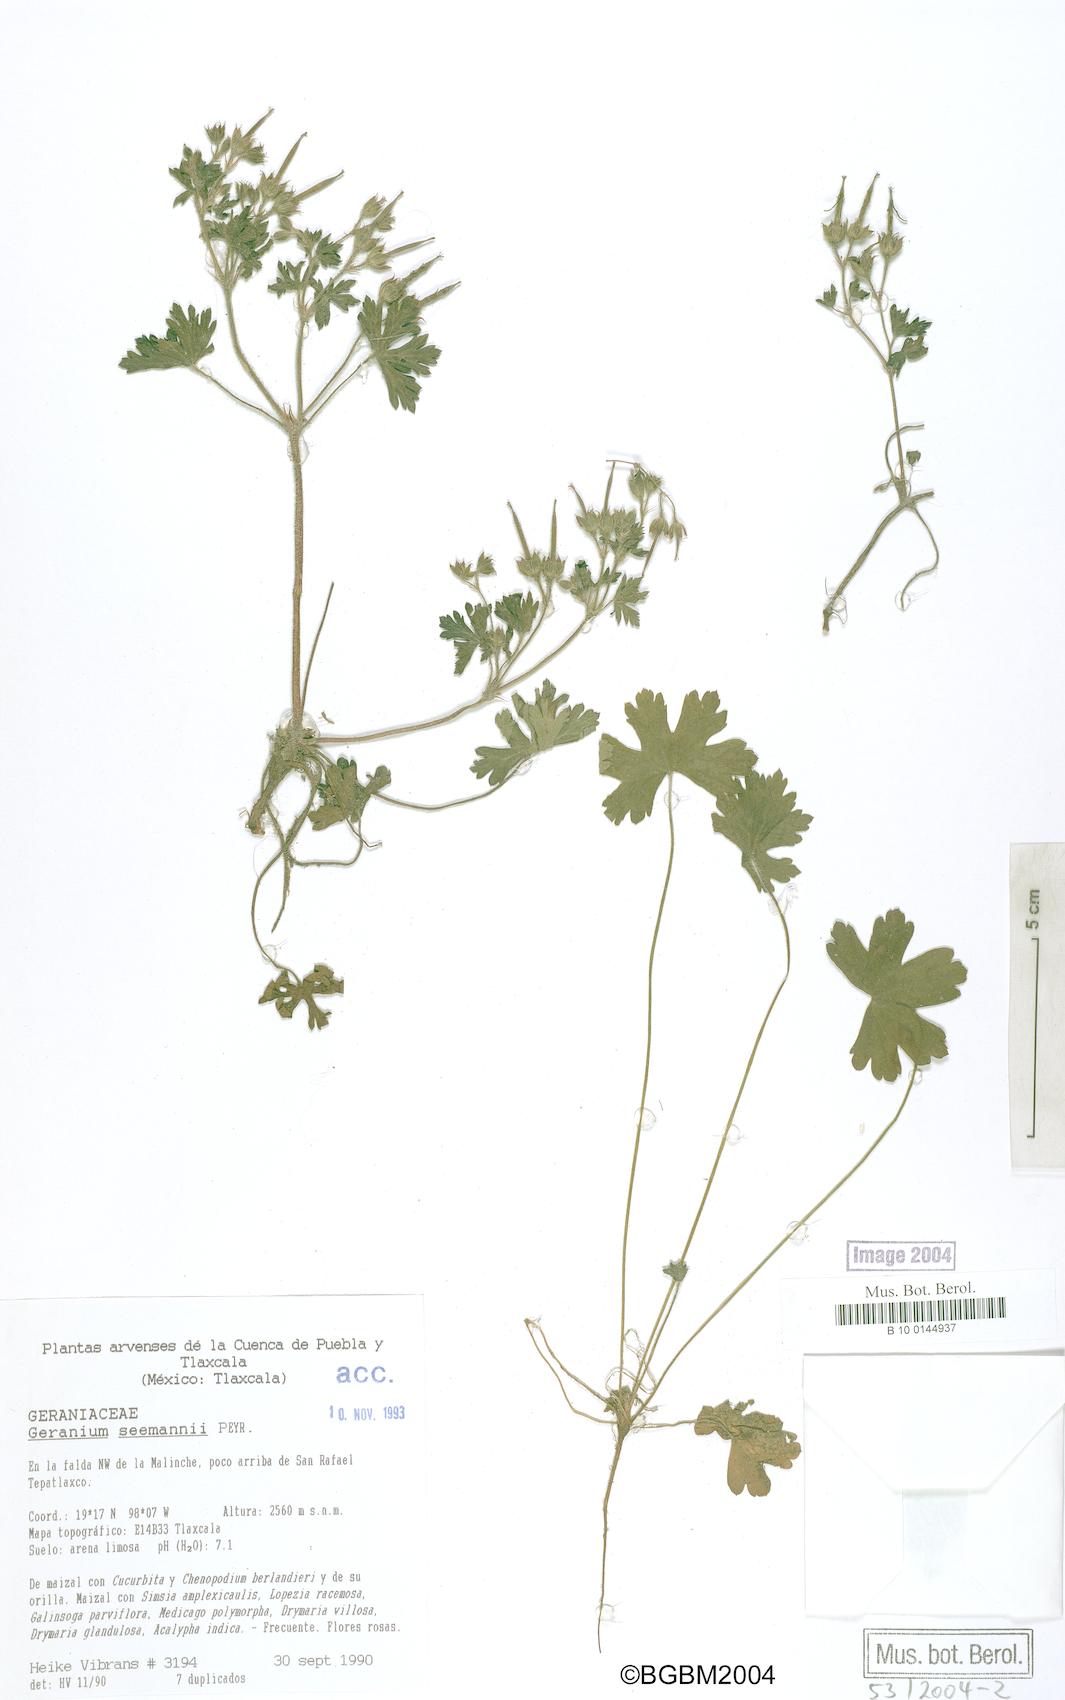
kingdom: Plantae
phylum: Tracheophyta
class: Magnoliopsida
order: Geraniales
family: Geraniaceae
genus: Geranium
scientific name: Geranium seemannii
